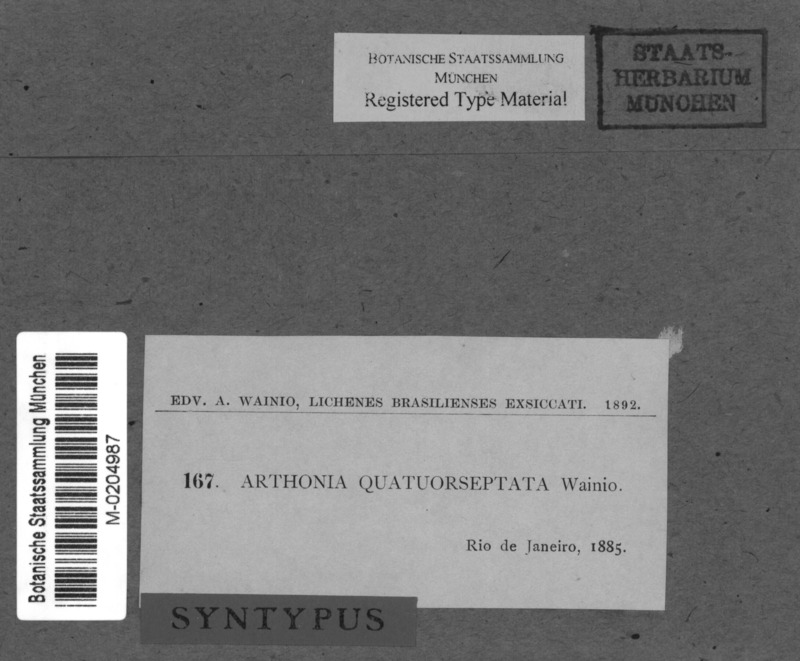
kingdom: Fungi
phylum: Ascomycota
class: Arthoniomycetes
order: Arthoniales
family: Arthoniaceae
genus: Arthonia
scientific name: Arthonia
